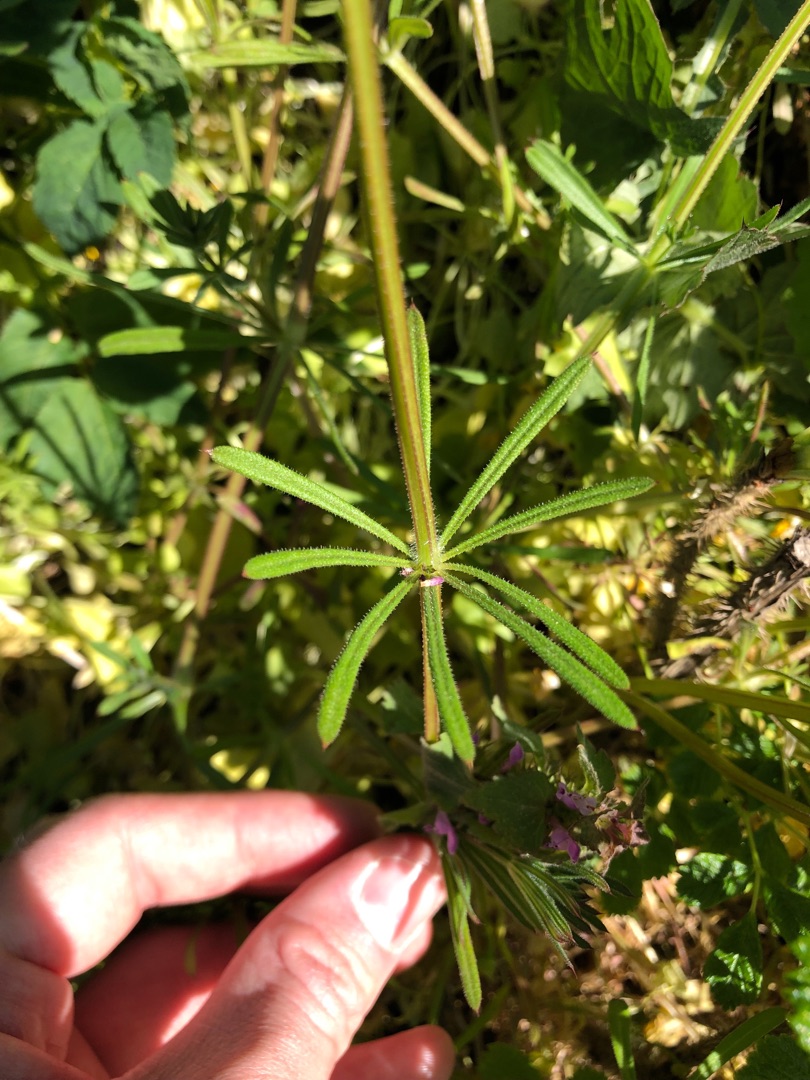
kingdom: Plantae
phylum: Tracheophyta
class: Magnoliopsida
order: Gentianales
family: Rubiaceae
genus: Galium
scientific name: Galium aparine
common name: Burre-snerre
